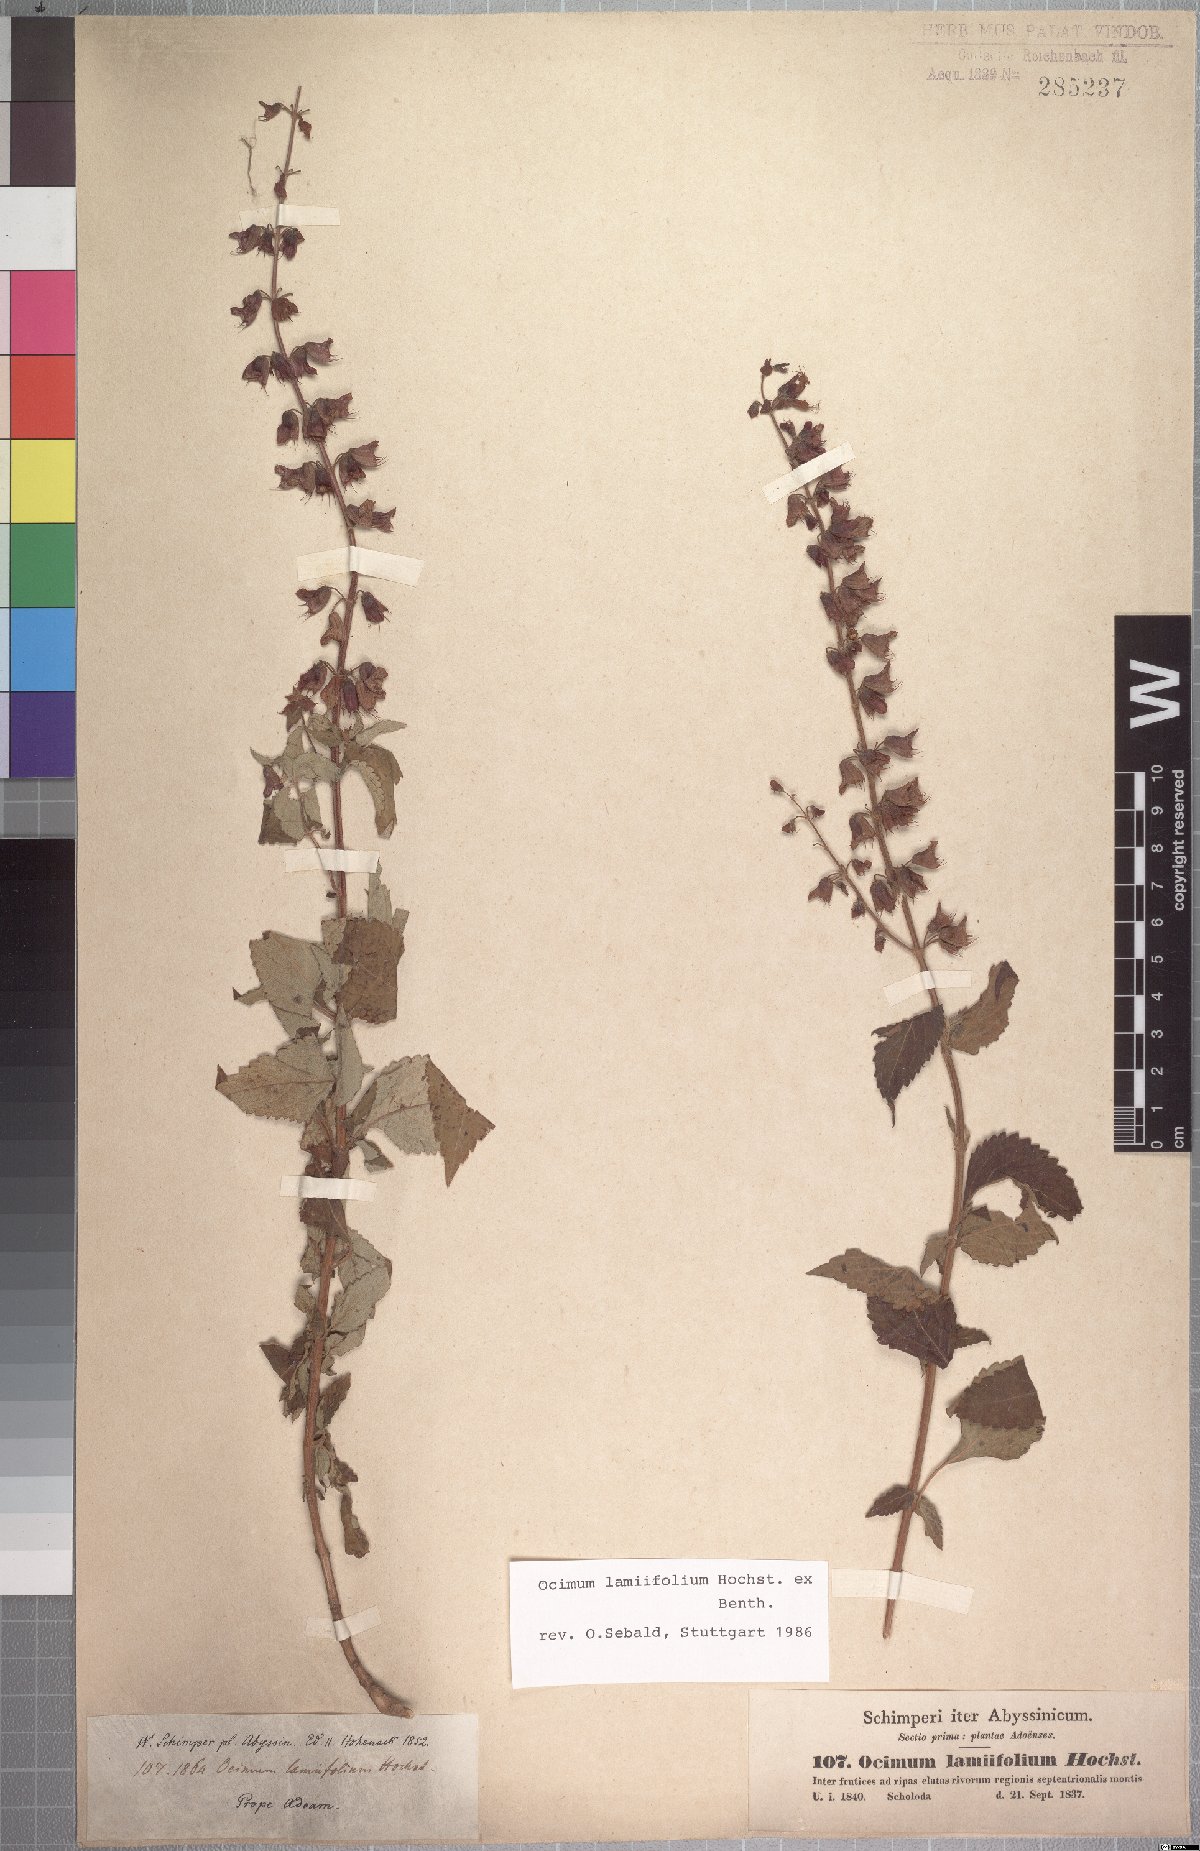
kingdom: Plantae
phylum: Tracheophyta
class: Magnoliopsida
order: Lamiales
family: Lamiaceae
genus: Ocimum
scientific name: Ocimum lamiifolium
